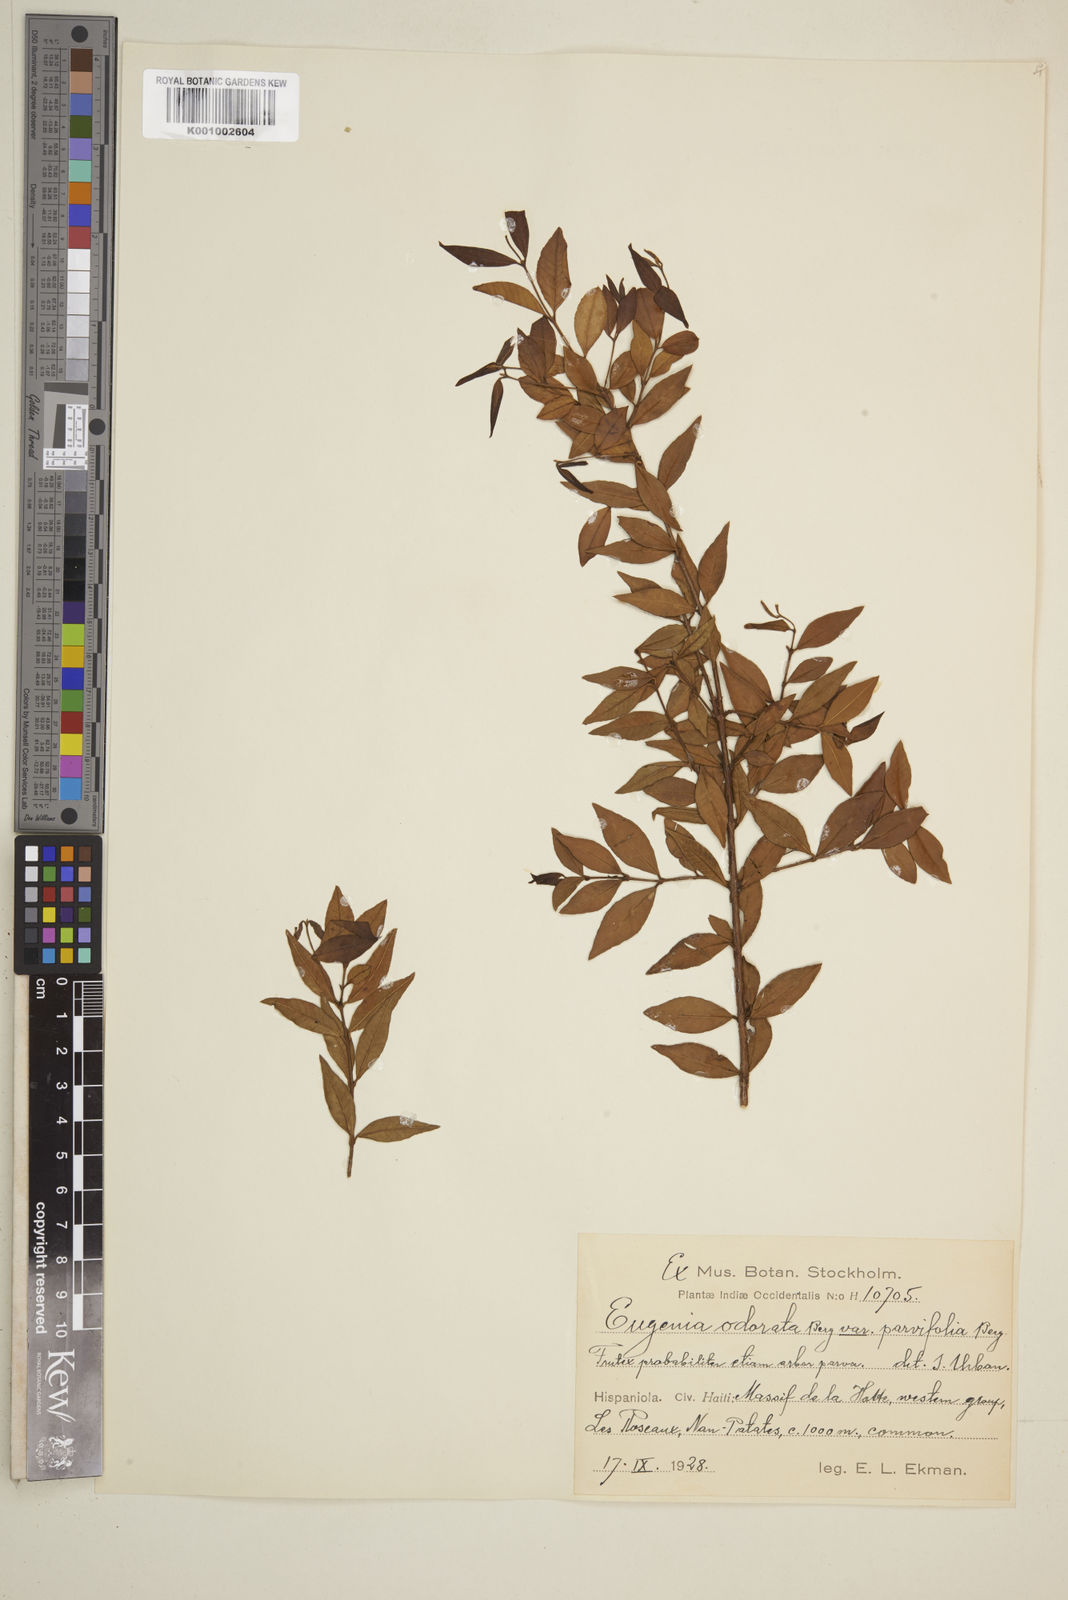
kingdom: Plantae
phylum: Tracheophyta
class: Magnoliopsida
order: Myrtales
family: Myrtaceae
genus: Syzygium
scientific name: Syzygium brachiatum
